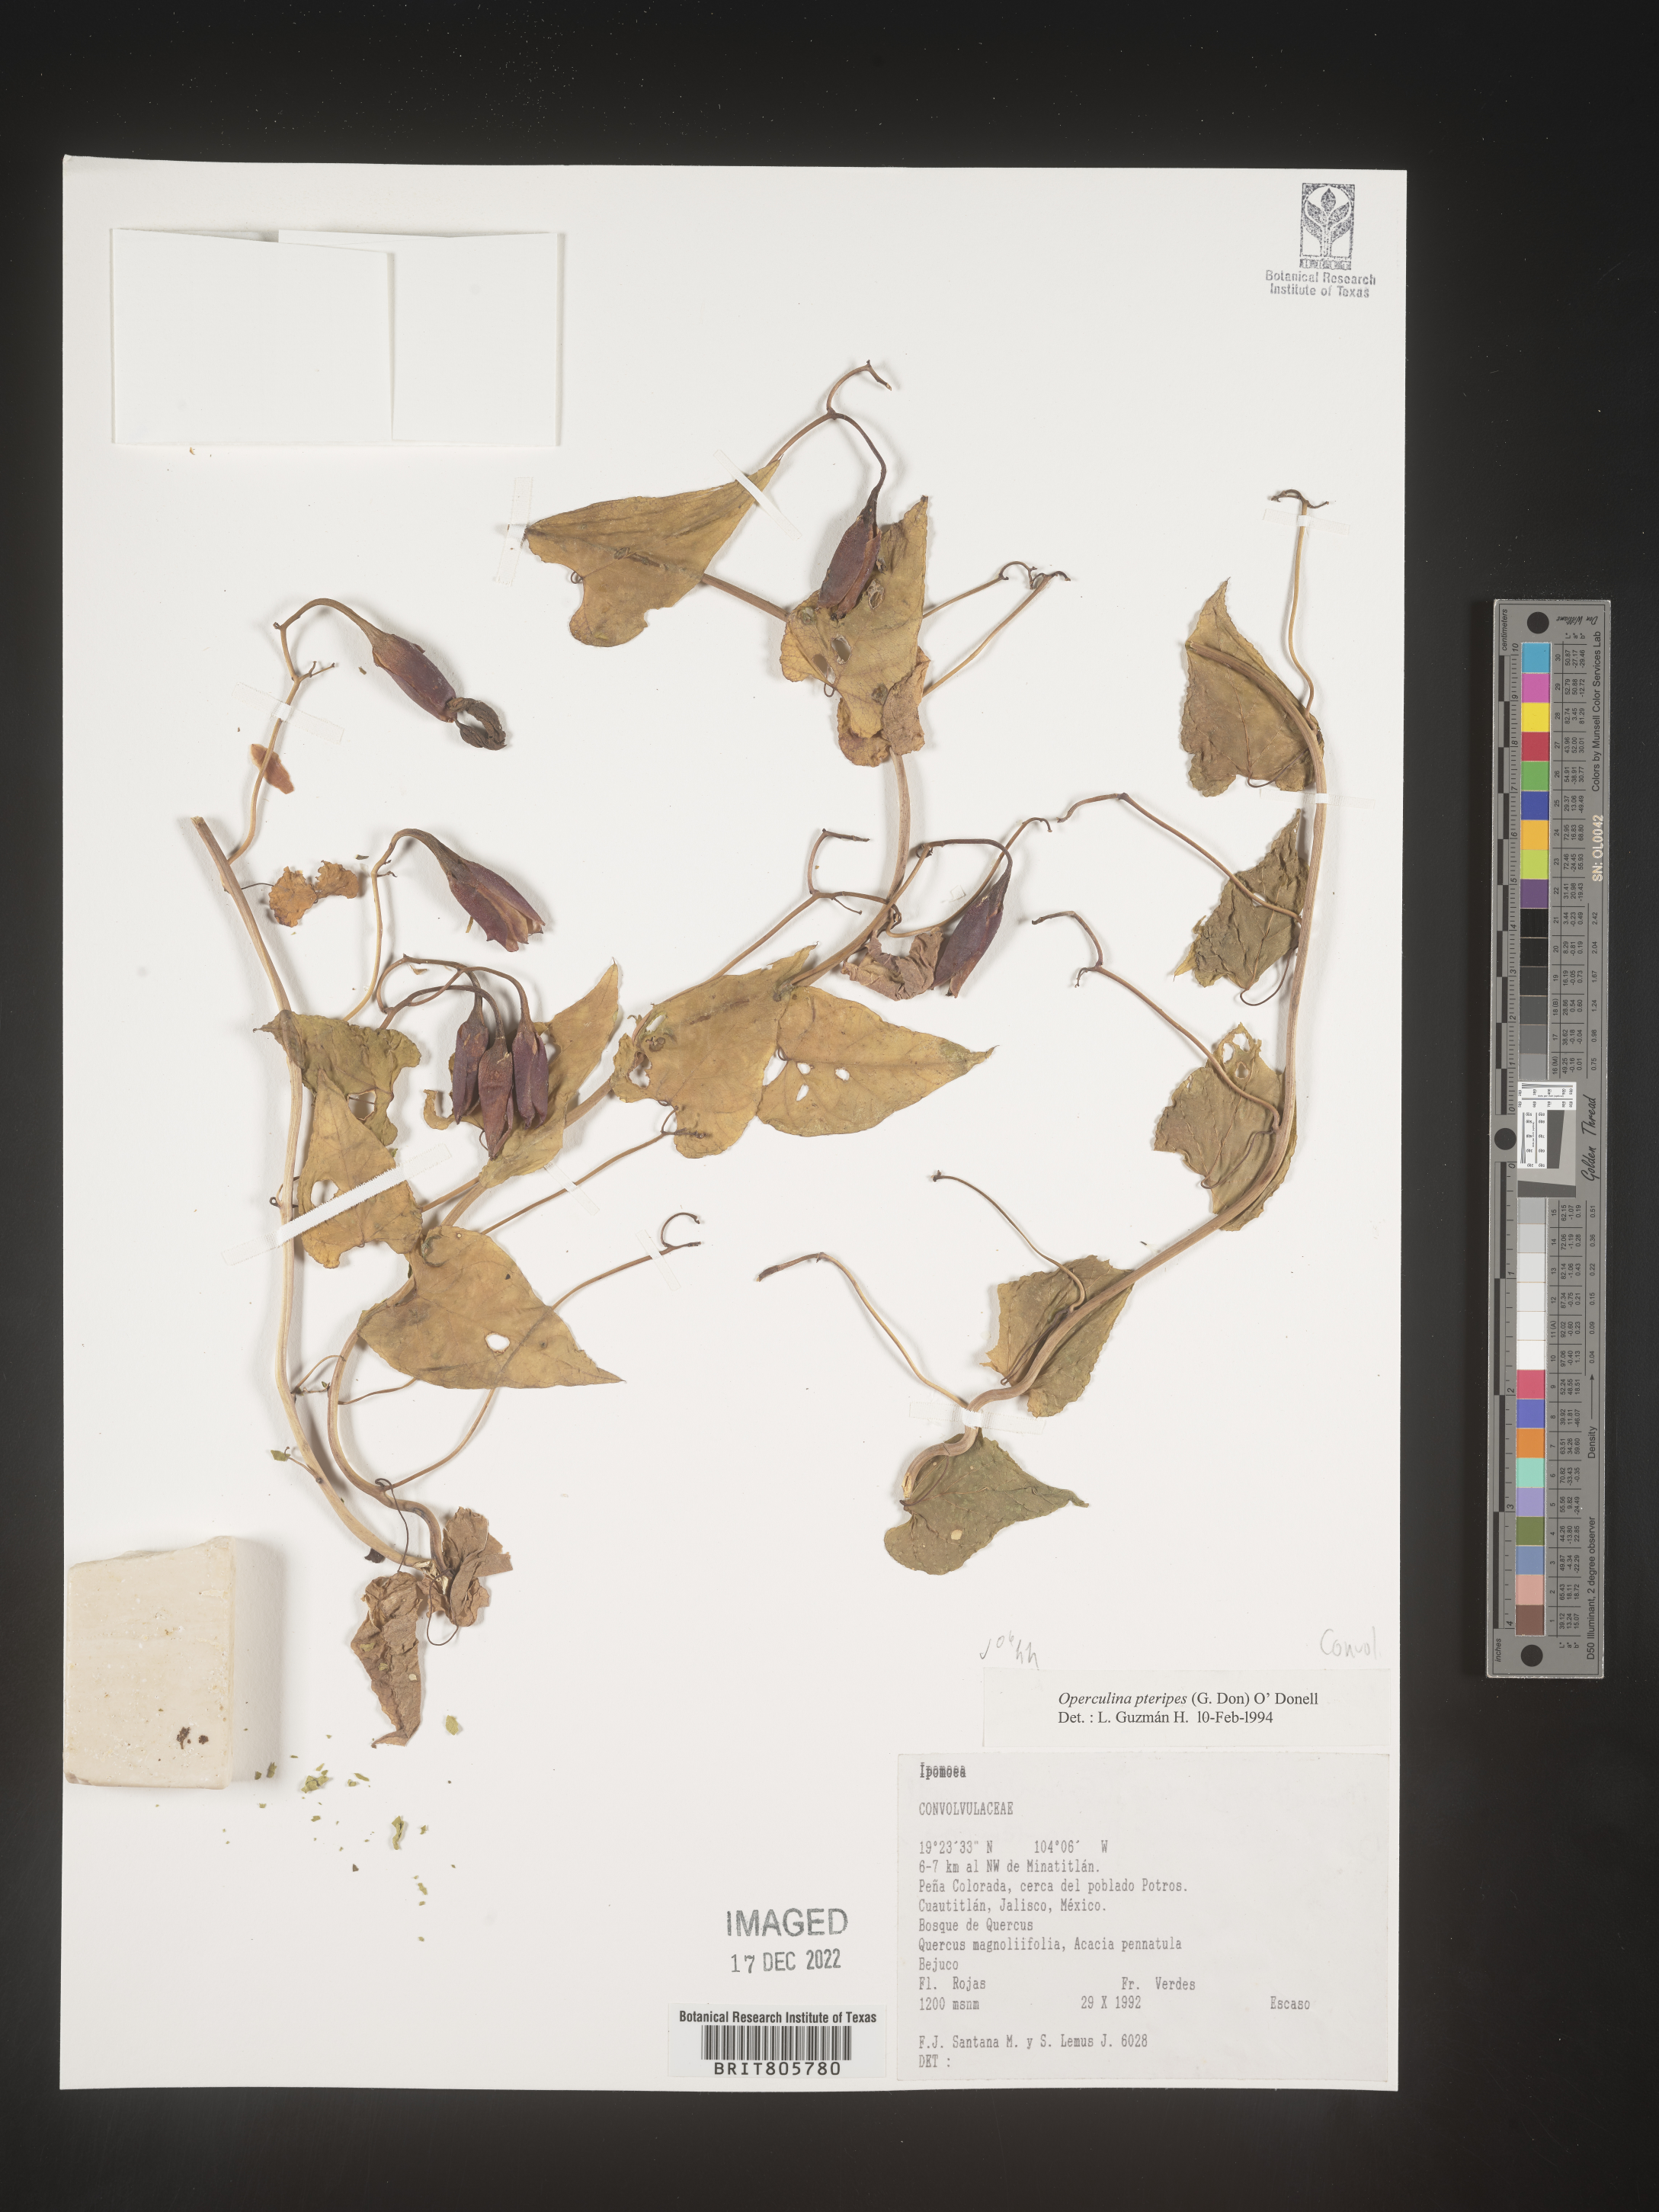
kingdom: Plantae
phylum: Tracheophyta
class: Magnoliopsida
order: Solanales
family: Convolvulaceae
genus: Operculina
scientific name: Operculina
